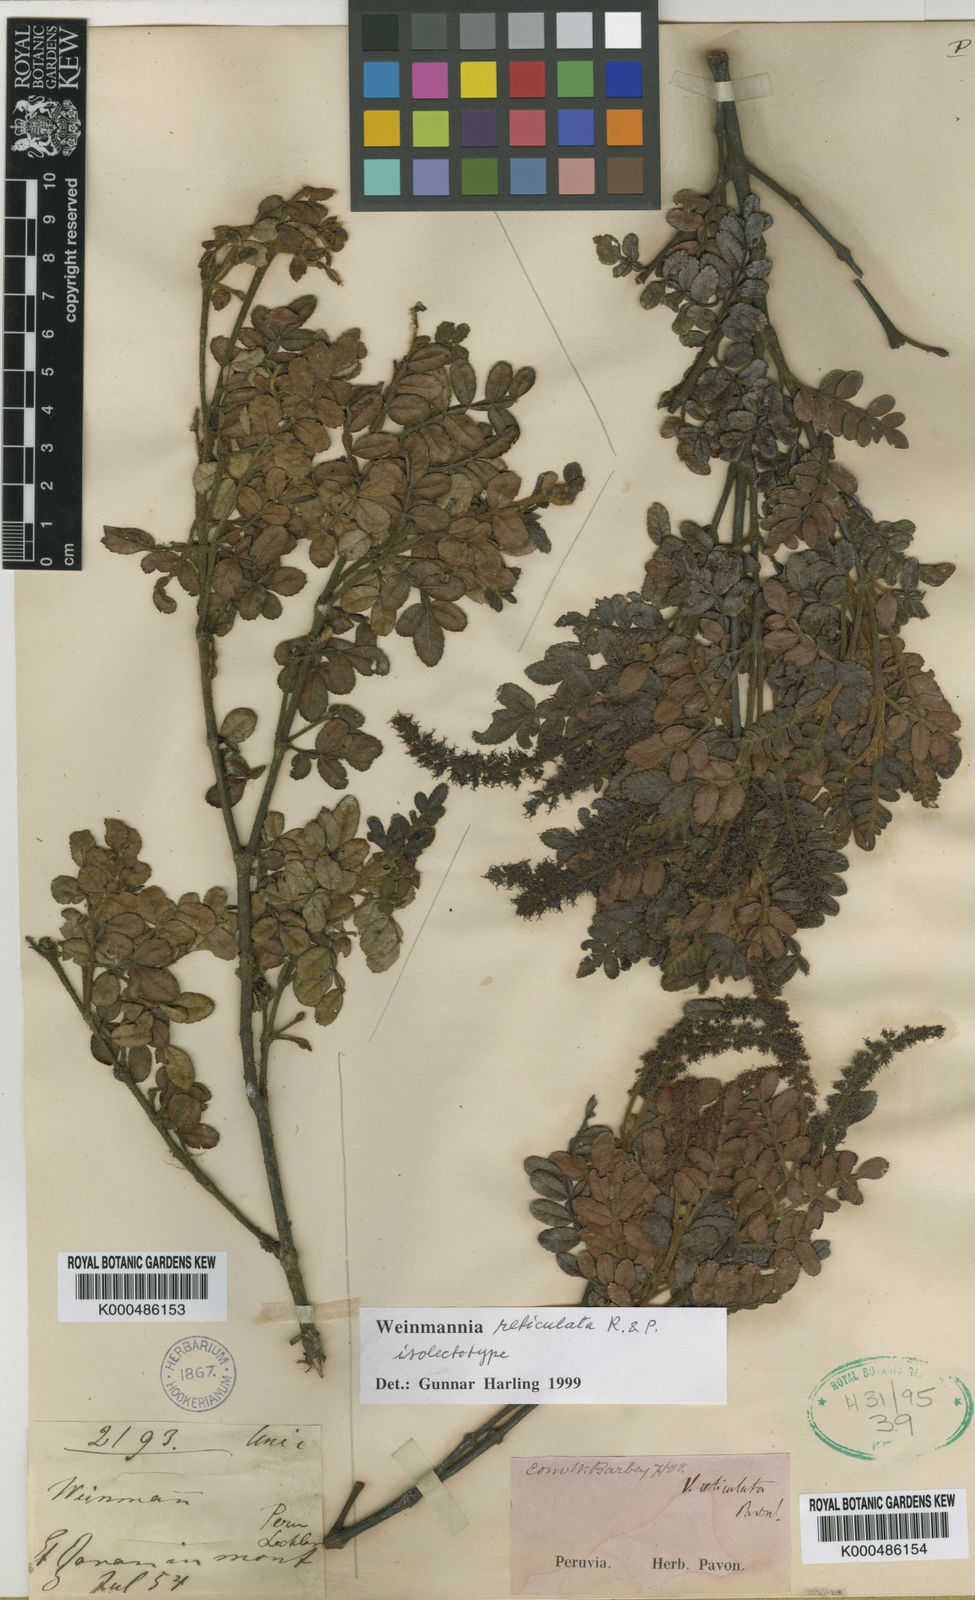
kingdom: Plantae
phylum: Tracheophyta
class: Magnoliopsida
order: Oxalidales
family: Cunoniaceae
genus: Weinmannia
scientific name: Weinmannia
